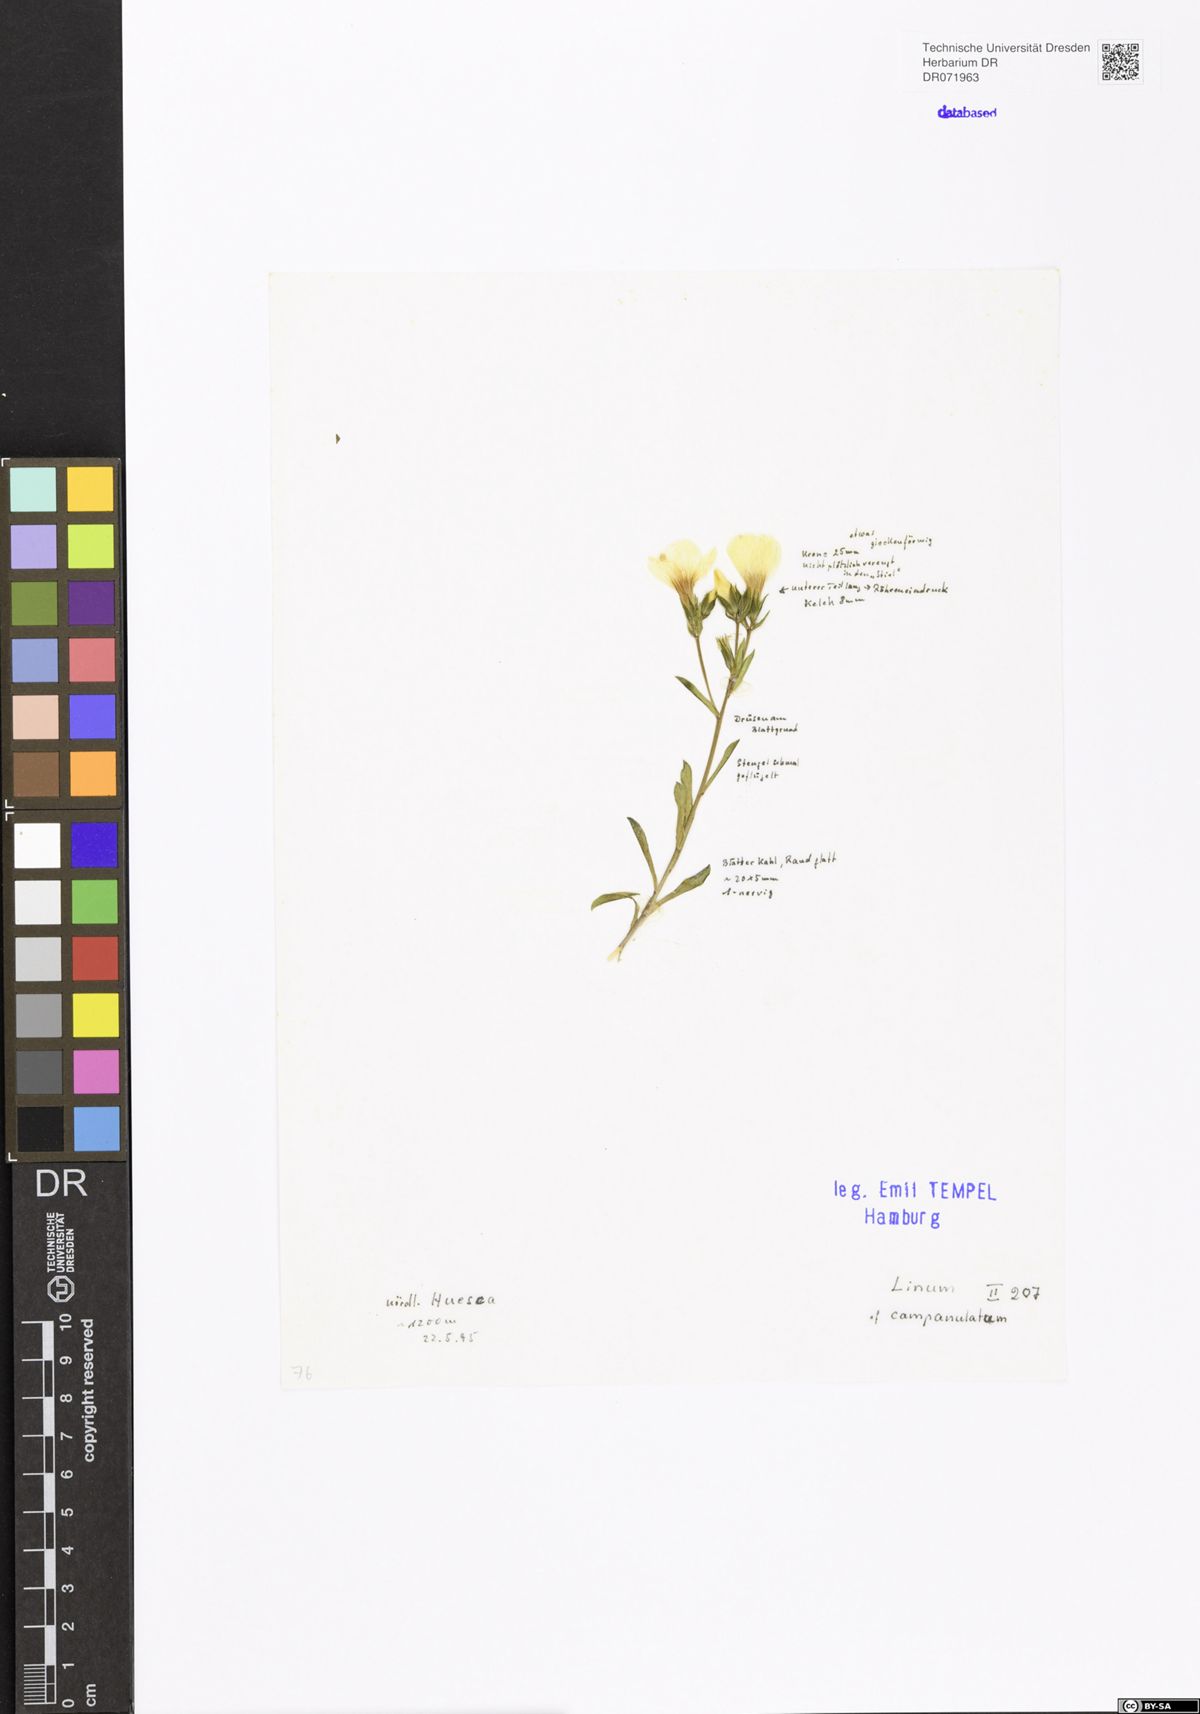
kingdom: Plantae
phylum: Tracheophyta
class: Magnoliopsida
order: Malpighiales
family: Linaceae
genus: Linum
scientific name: Linum campanulatum
